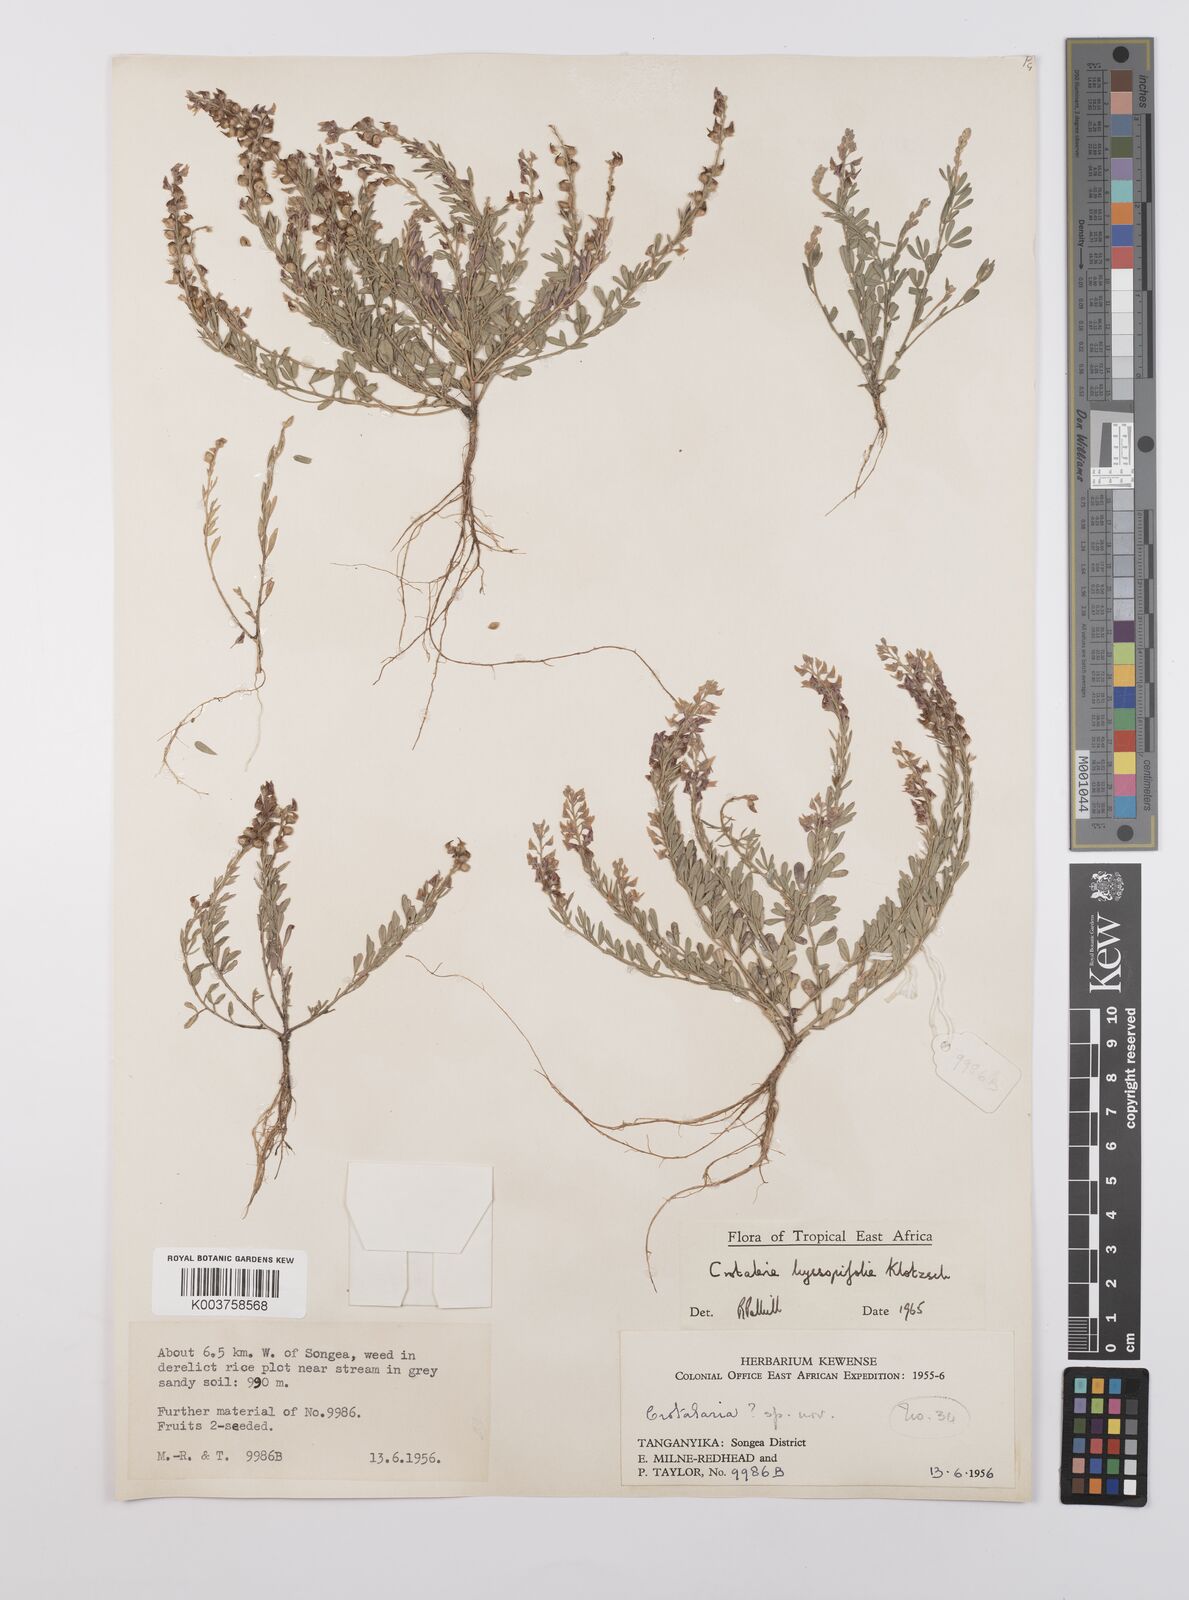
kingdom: Plantae
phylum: Tracheophyta
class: Magnoliopsida
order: Fabales
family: Fabaceae
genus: Crotalaria
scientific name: Crotalaria hyssopifolia
